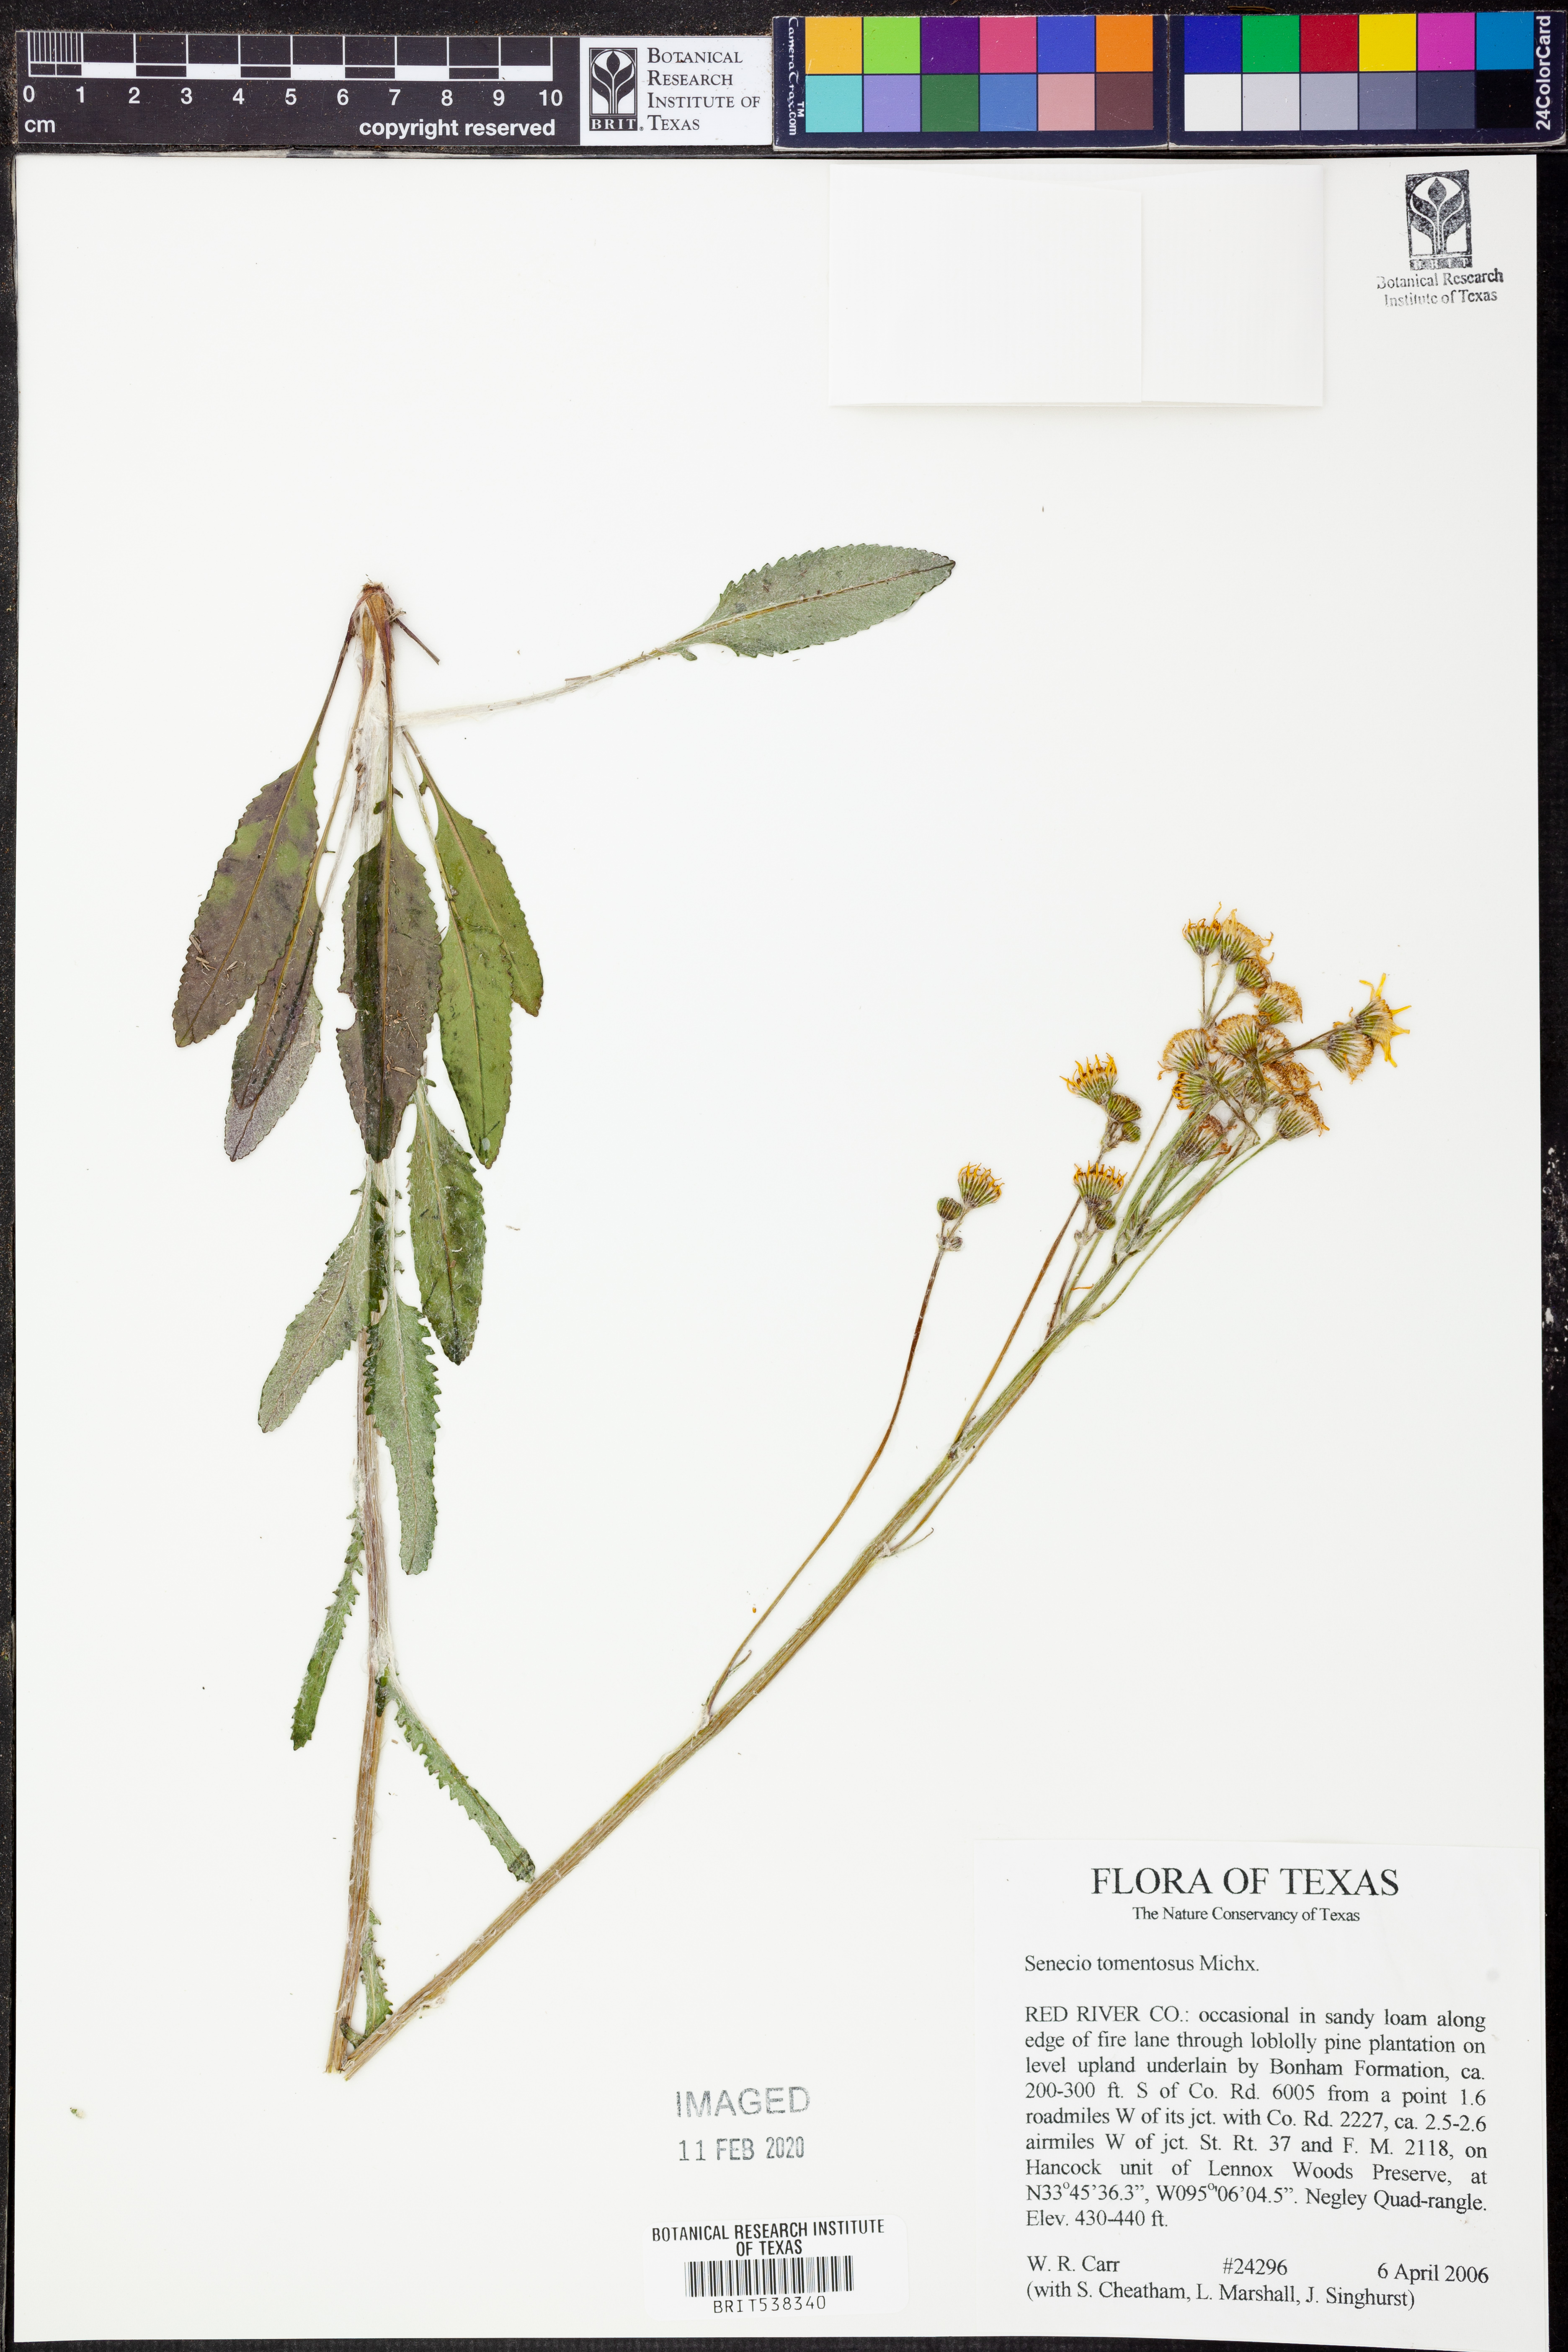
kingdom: Plantae
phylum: Tracheophyta
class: Magnoliopsida
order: Asterales
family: Asteraceae
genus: Senecio
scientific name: Senecio cinerascens
